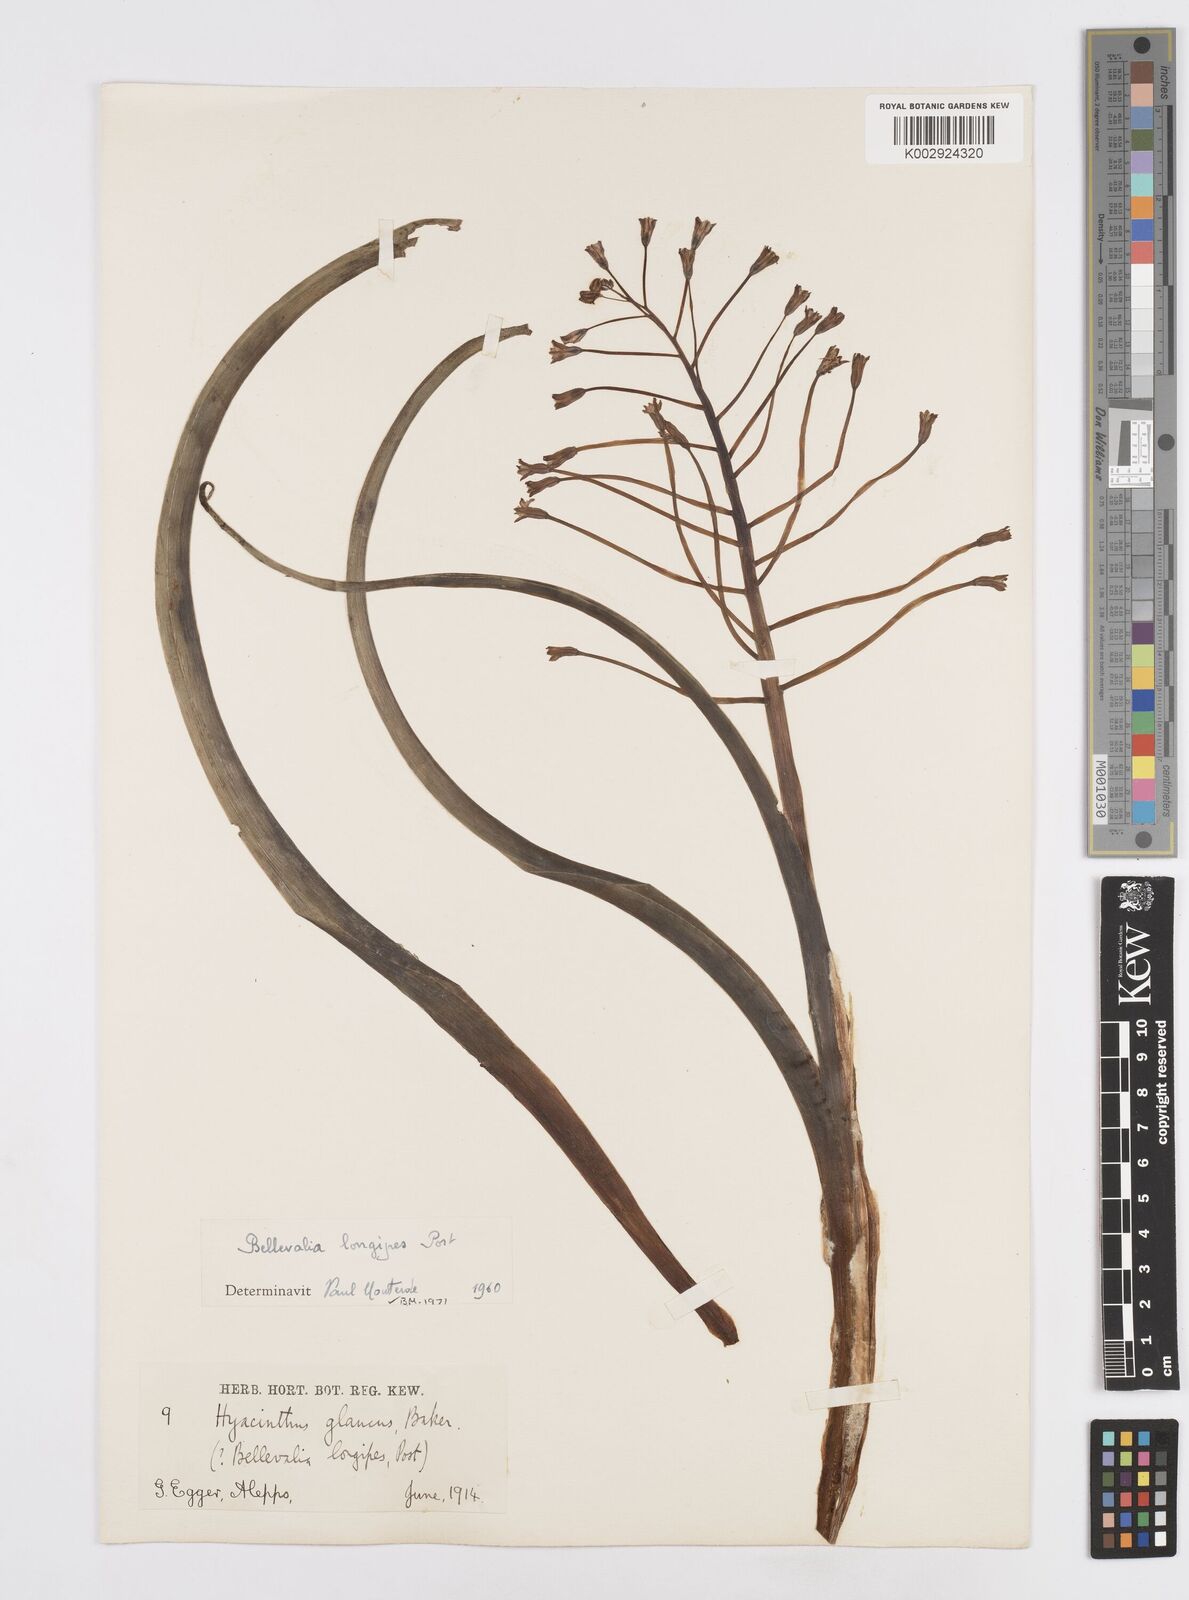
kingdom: Plantae
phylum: Tracheophyta
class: Liliopsida
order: Asparagales
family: Asparagaceae
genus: Bellevalia
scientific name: Bellevalia longipes
